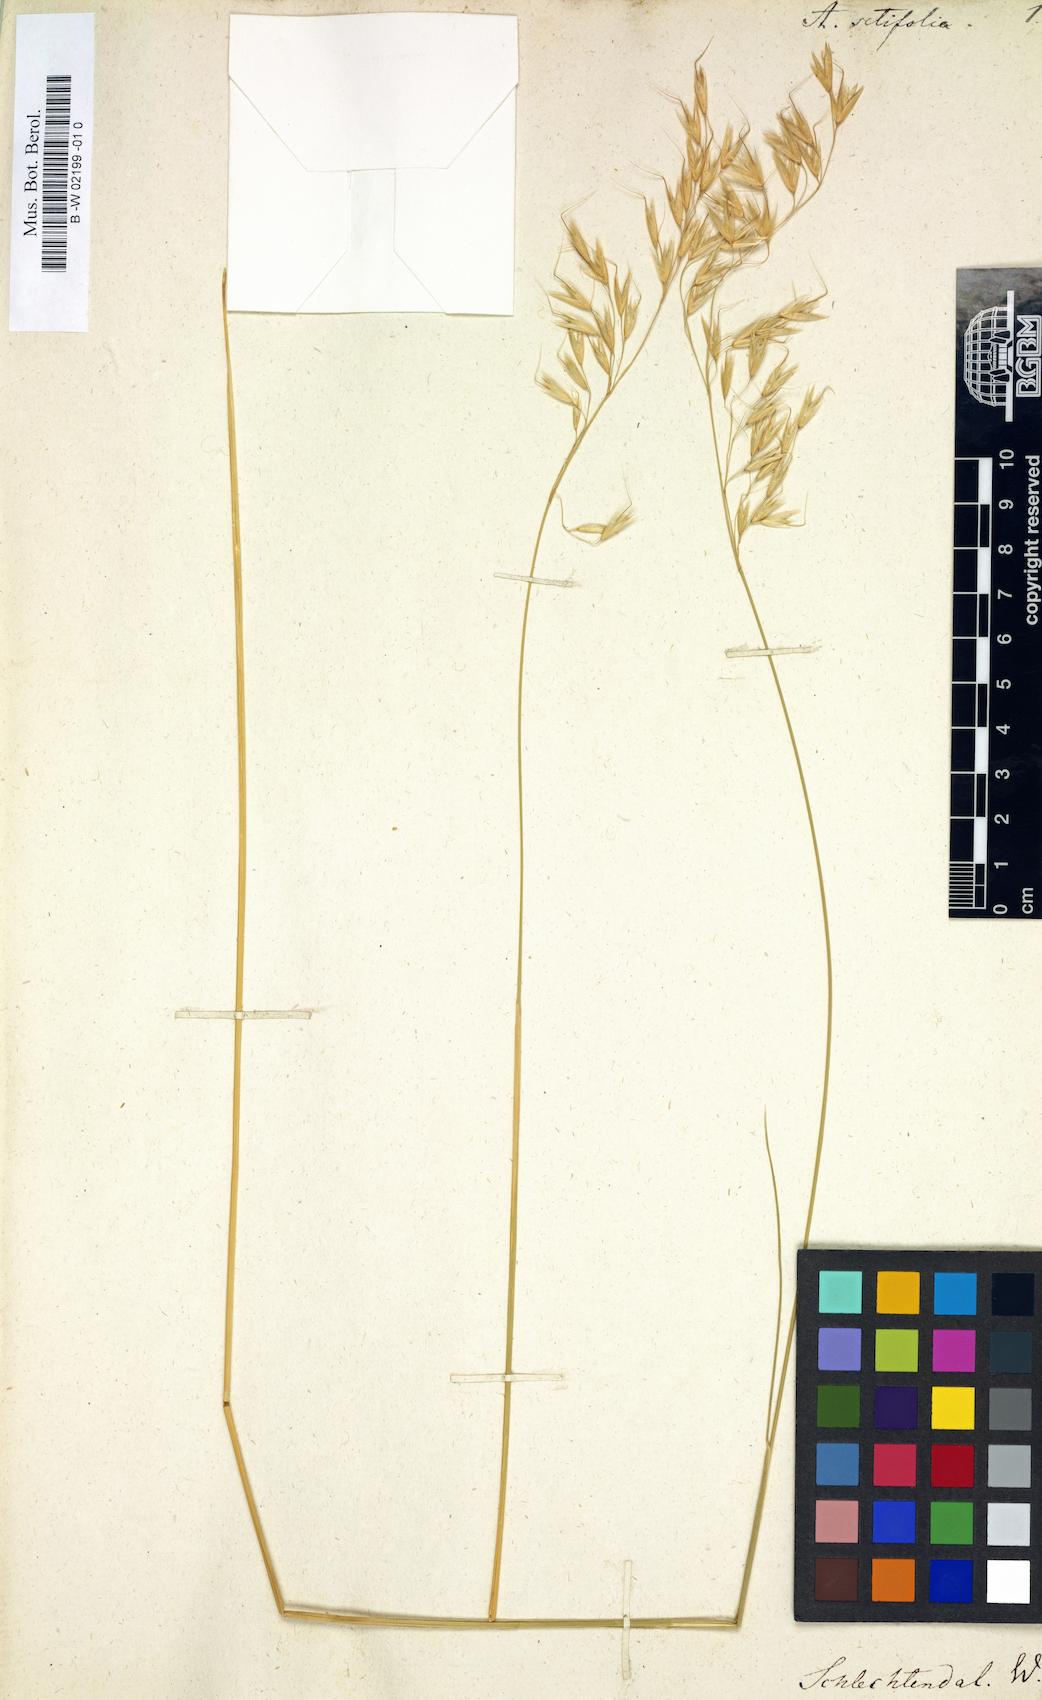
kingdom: Plantae
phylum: Tracheophyta
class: Liliopsida
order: Poales
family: Poaceae
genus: Arrhenatherum
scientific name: Arrhenatherum pallens
